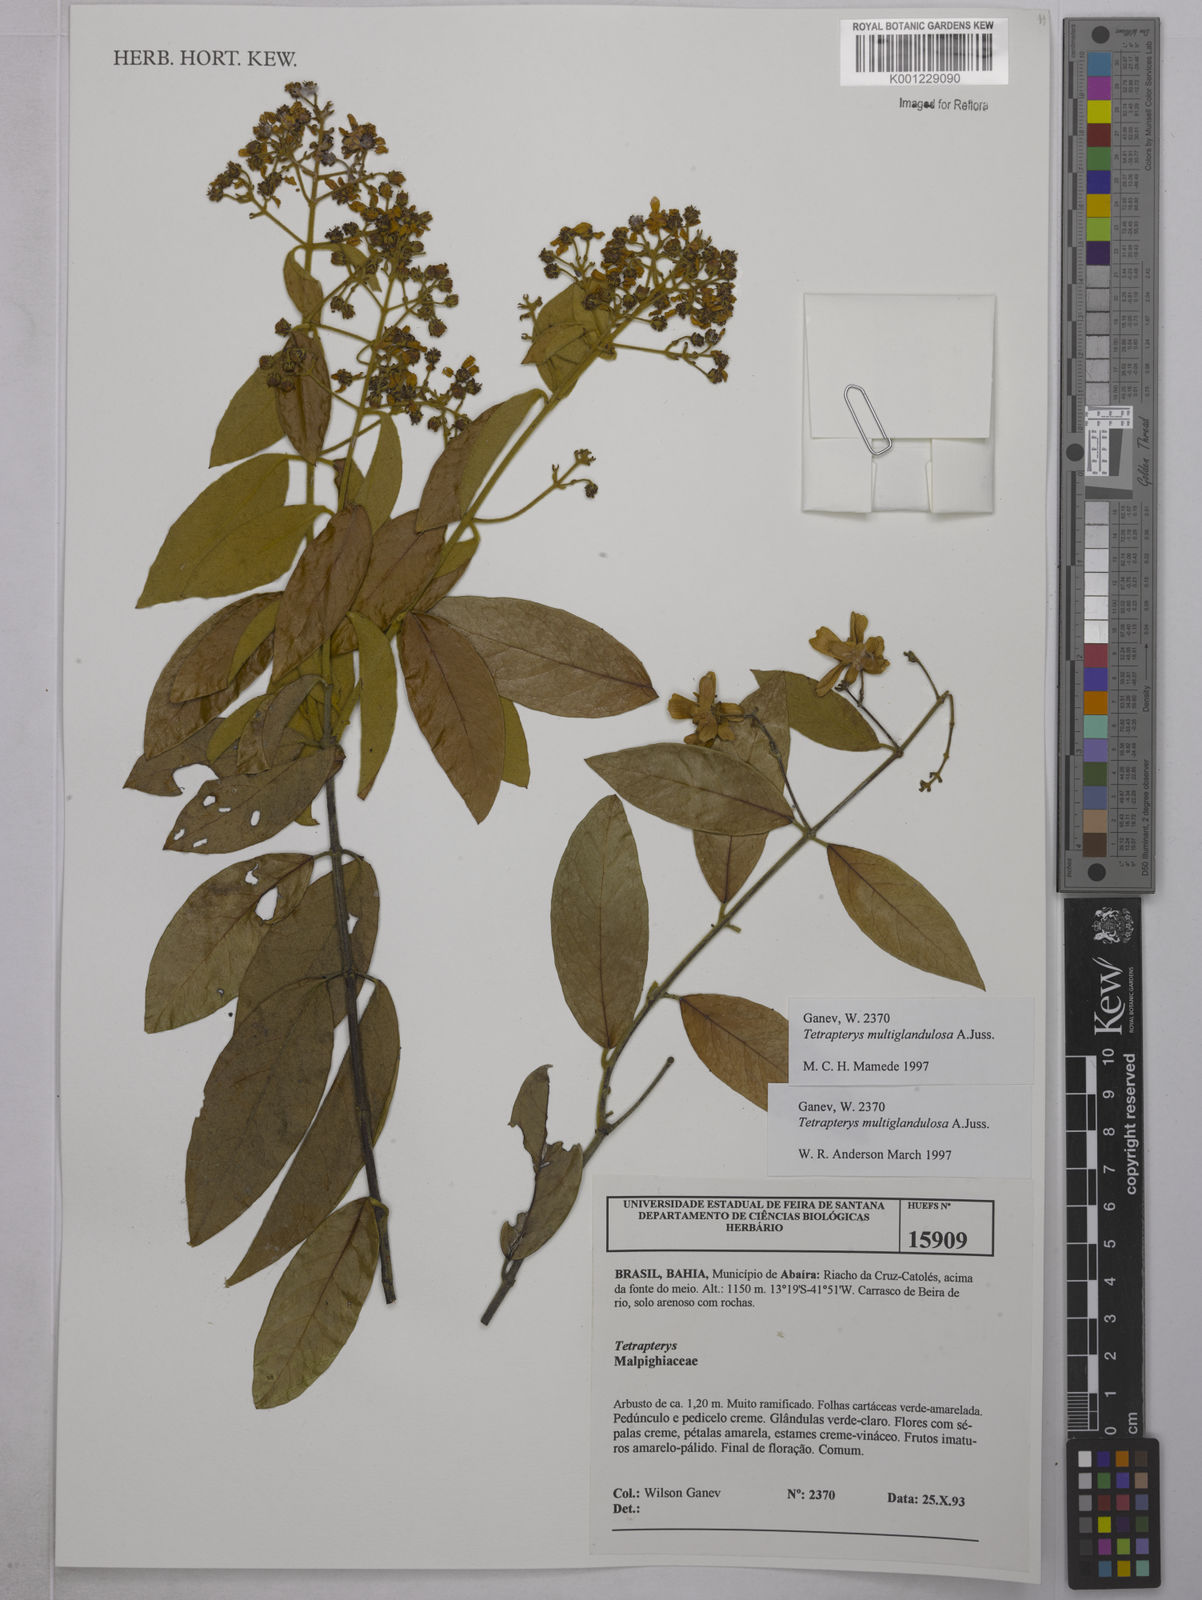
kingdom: Plantae
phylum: Tracheophyta
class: Magnoliopsida
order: Malpighiales
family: Malpighiaceae
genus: Niedenzuella
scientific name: Niedenzuella multiglandulosa
